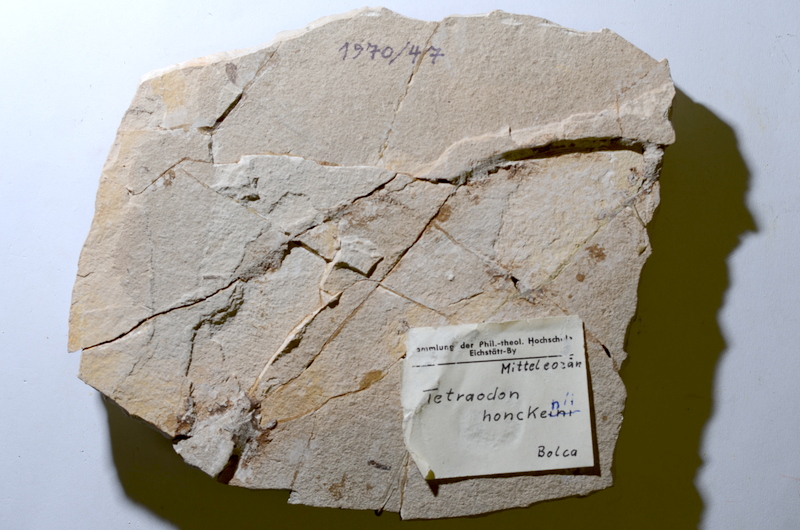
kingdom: Animalia
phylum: Chordata
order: Tetraodontiformes
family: Tetraodontidae
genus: Tetraodon
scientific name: Tetraodon
